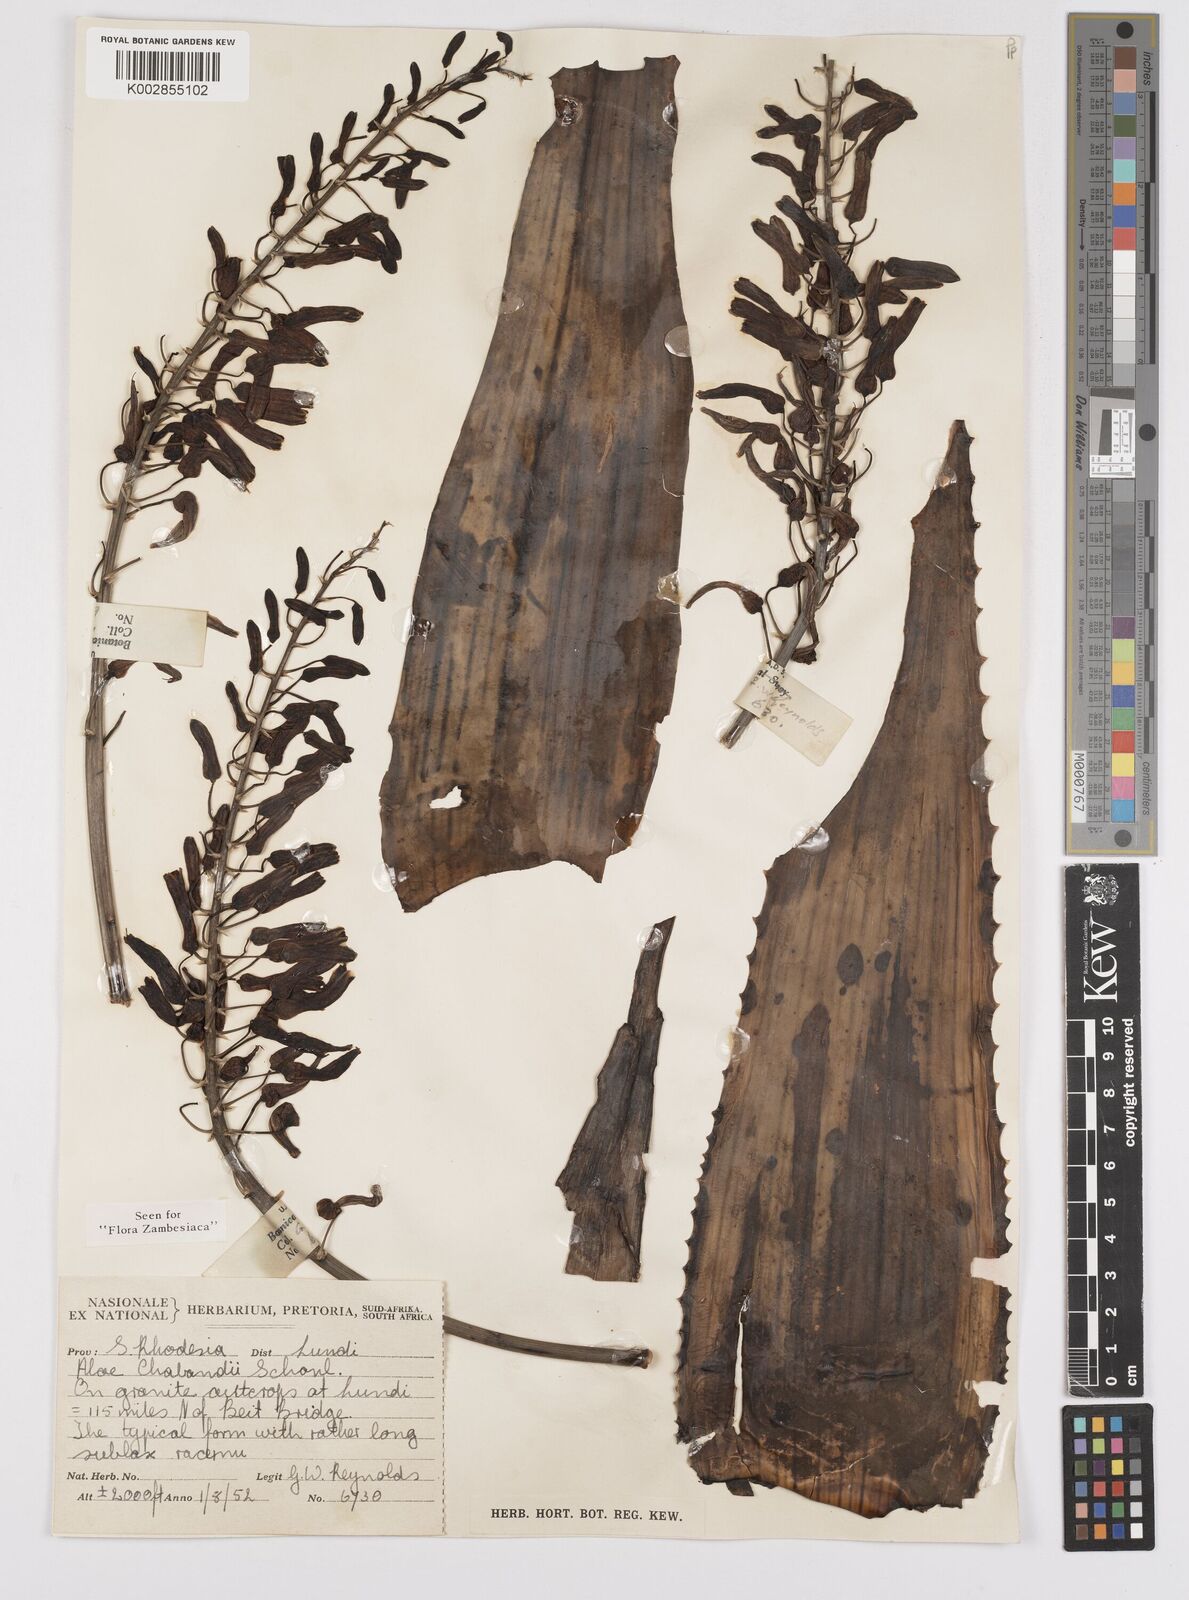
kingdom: Plantae
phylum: Tracheophyta
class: Liliopsida
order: Asparagales
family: Asphodelaceae
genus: Aloe
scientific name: Aloe chabaudii
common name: Chabaud's aloe
